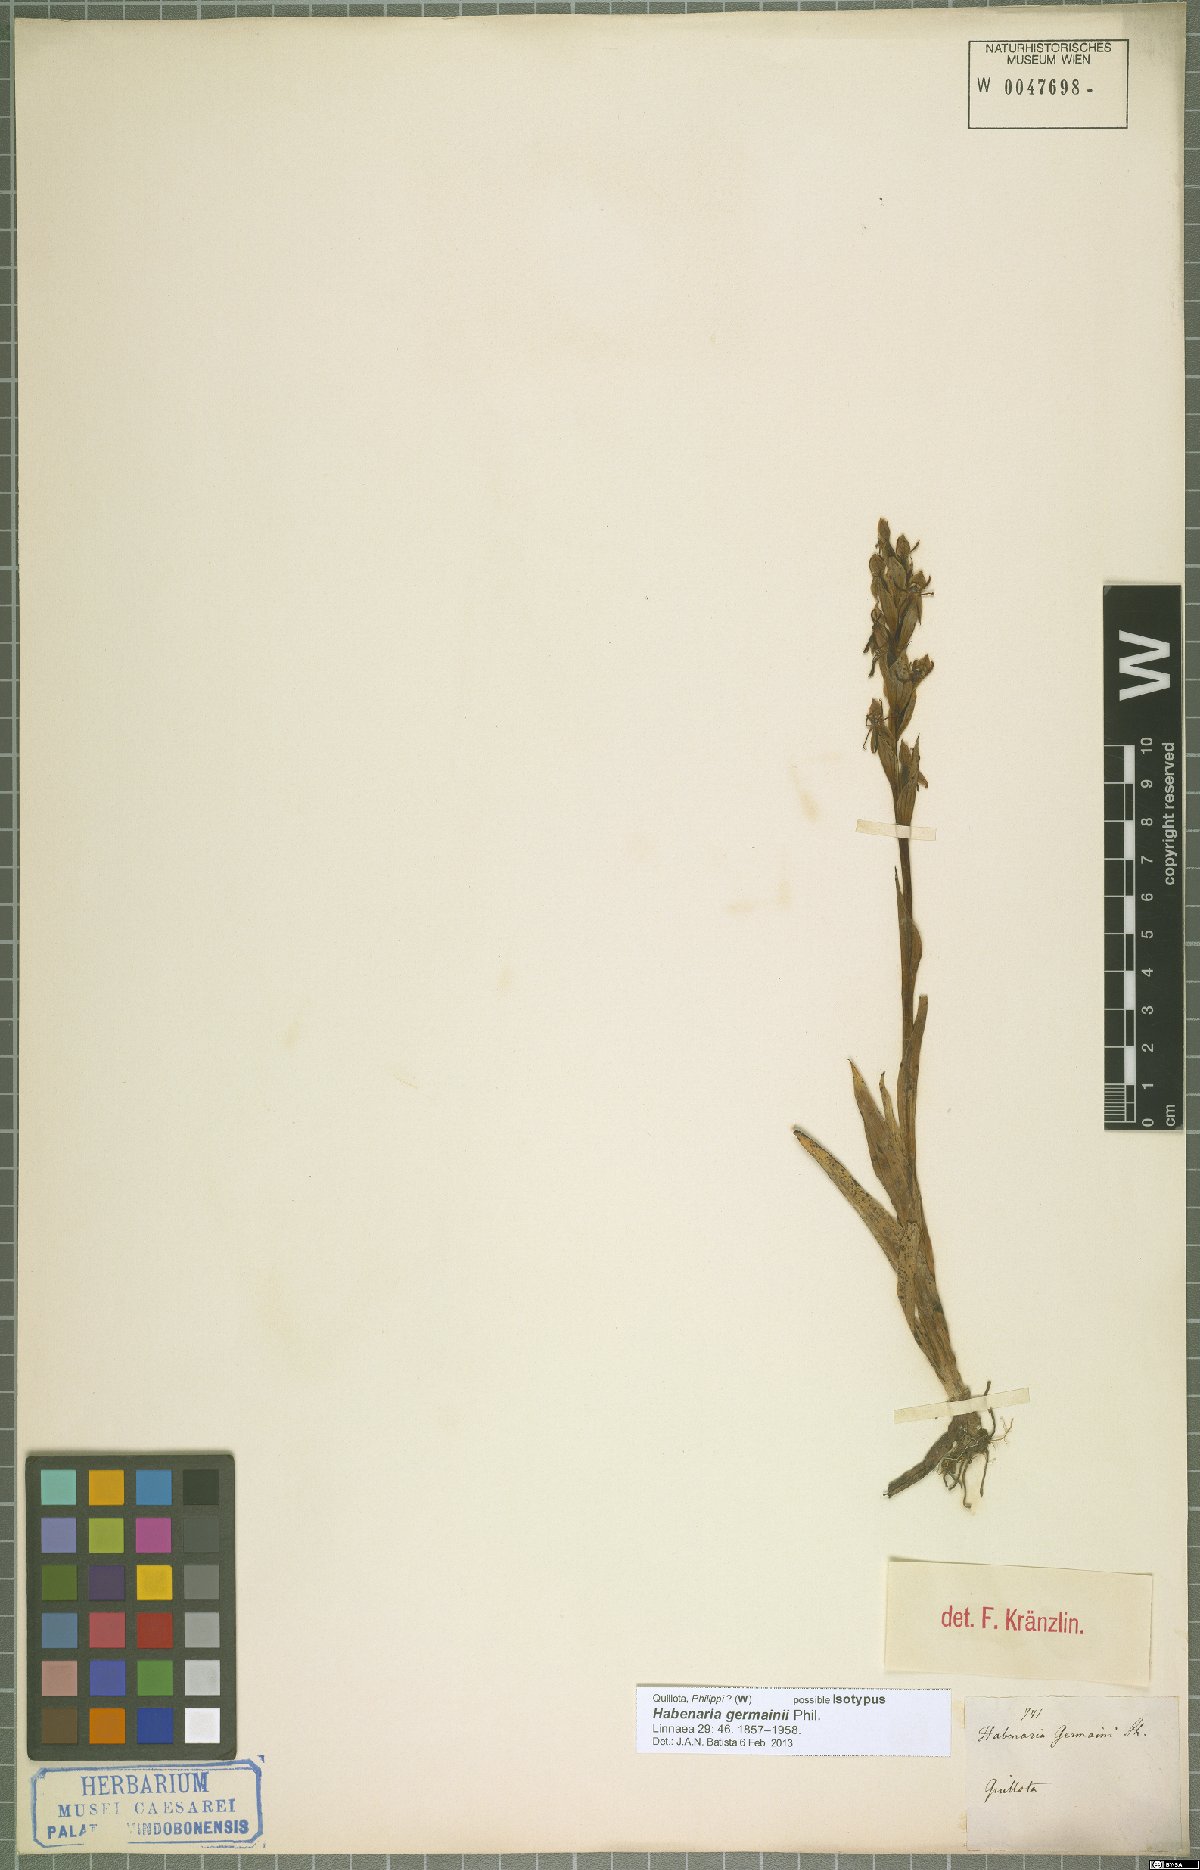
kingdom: Plantae
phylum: Tracheophyta
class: Liliopsida
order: Asparagales
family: Orchidaceae
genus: Habenaria
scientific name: Habenaria pumila
